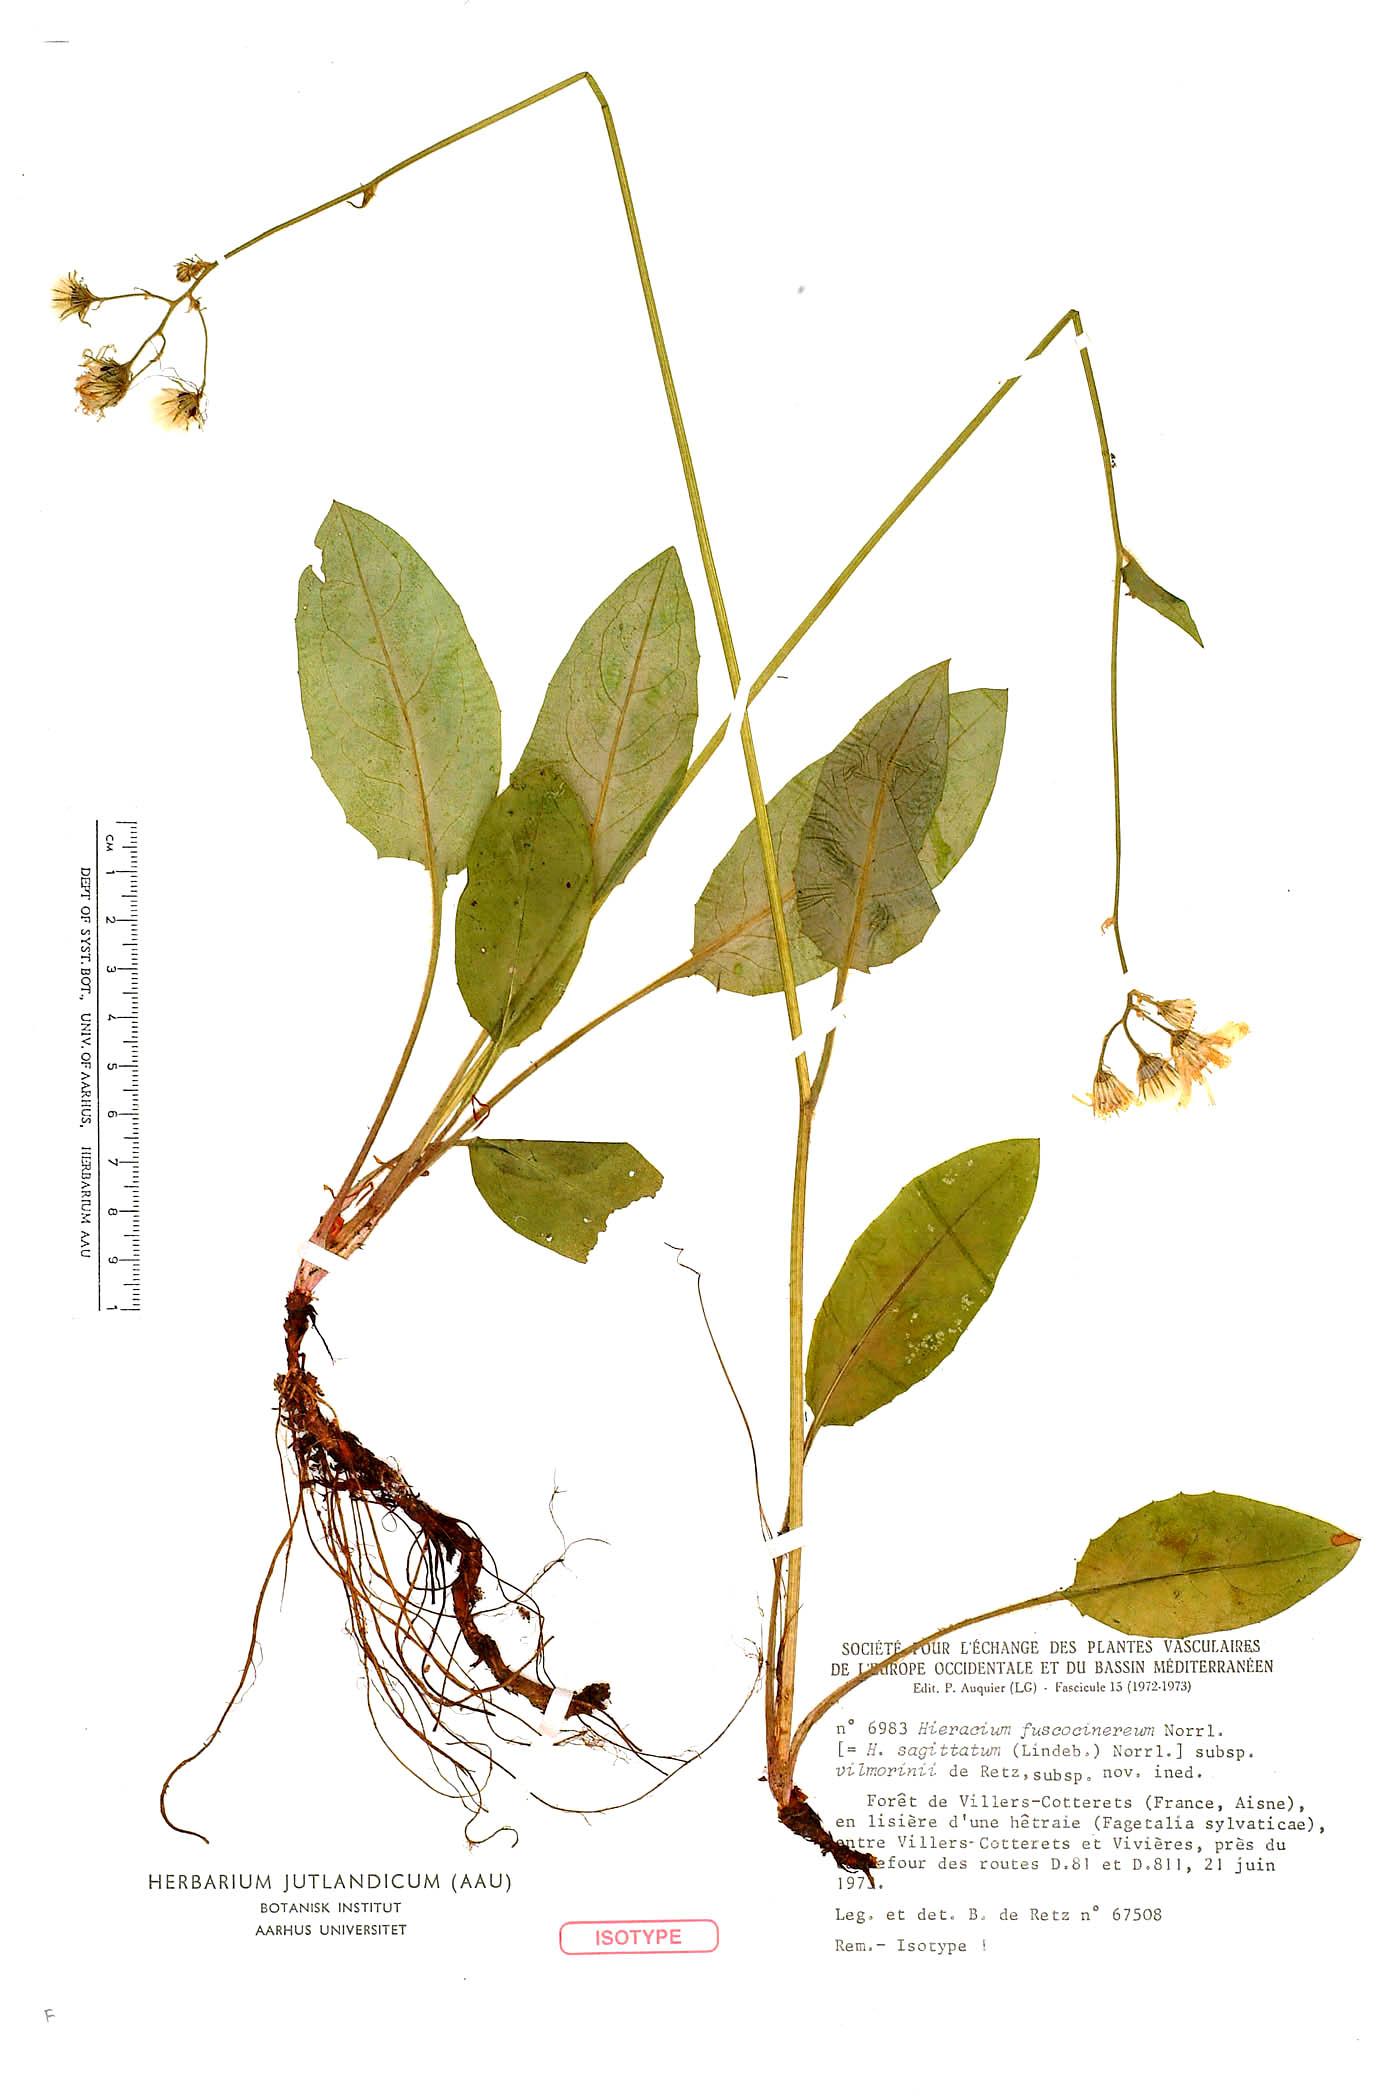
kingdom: Plantae
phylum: Tracheophyta
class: Magnoliopsida
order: Asterales
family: Asteraceae
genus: Hieracium
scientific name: Hieracium fuscocinereum
